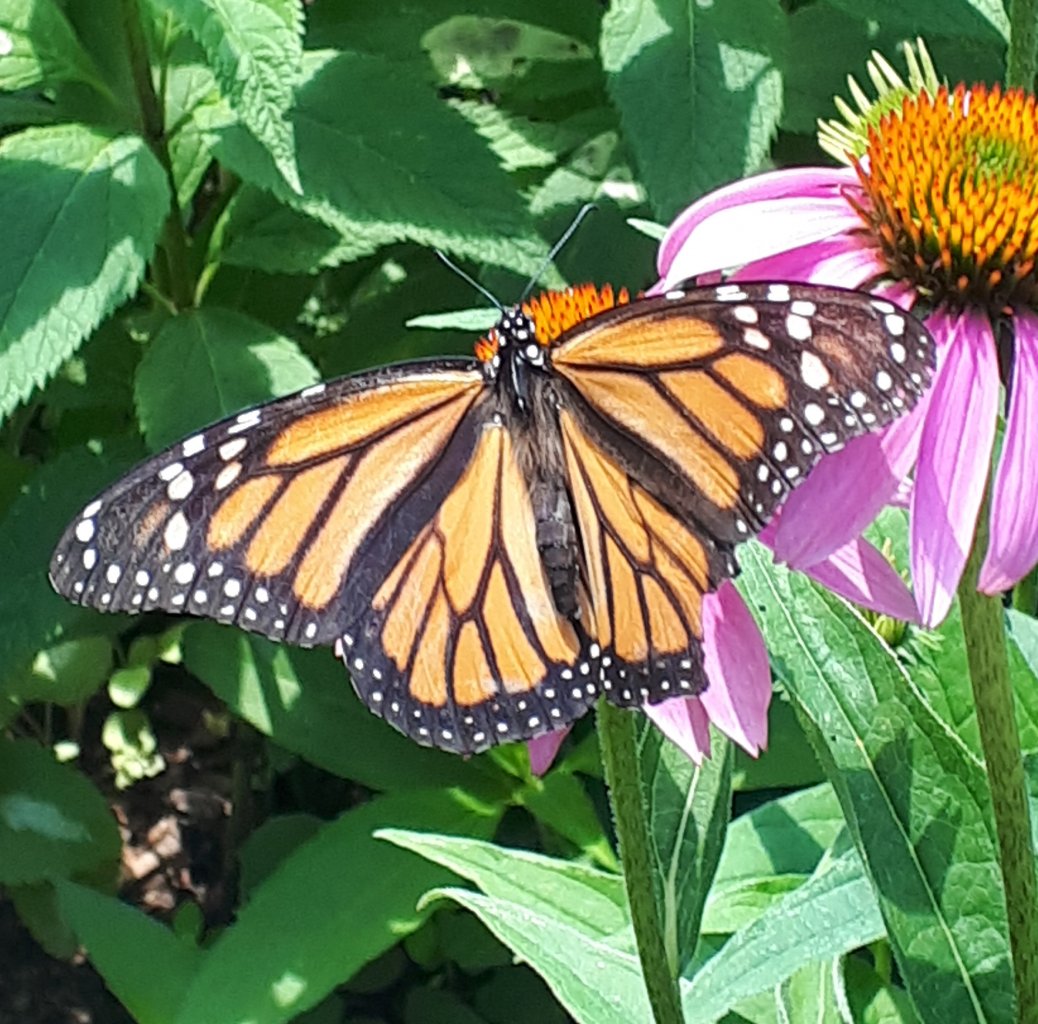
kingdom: Animalia
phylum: Arthropoda
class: Insecta
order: Lepidoptera
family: Nymphalidae
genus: Danaus
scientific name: Danaus plexippus
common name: Monarch
